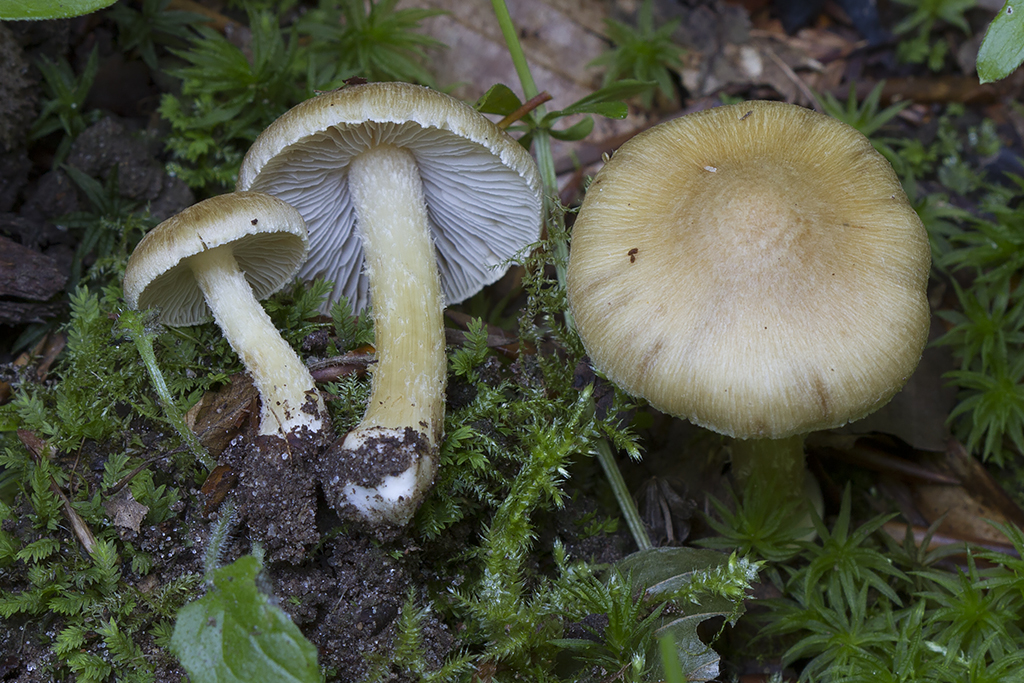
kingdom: Fungi
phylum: Basidiomycota
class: Agaricomycetes
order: Agaricales
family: Inocybaceae
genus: Inosperma
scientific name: Inosperma
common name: strågul trævlhat
